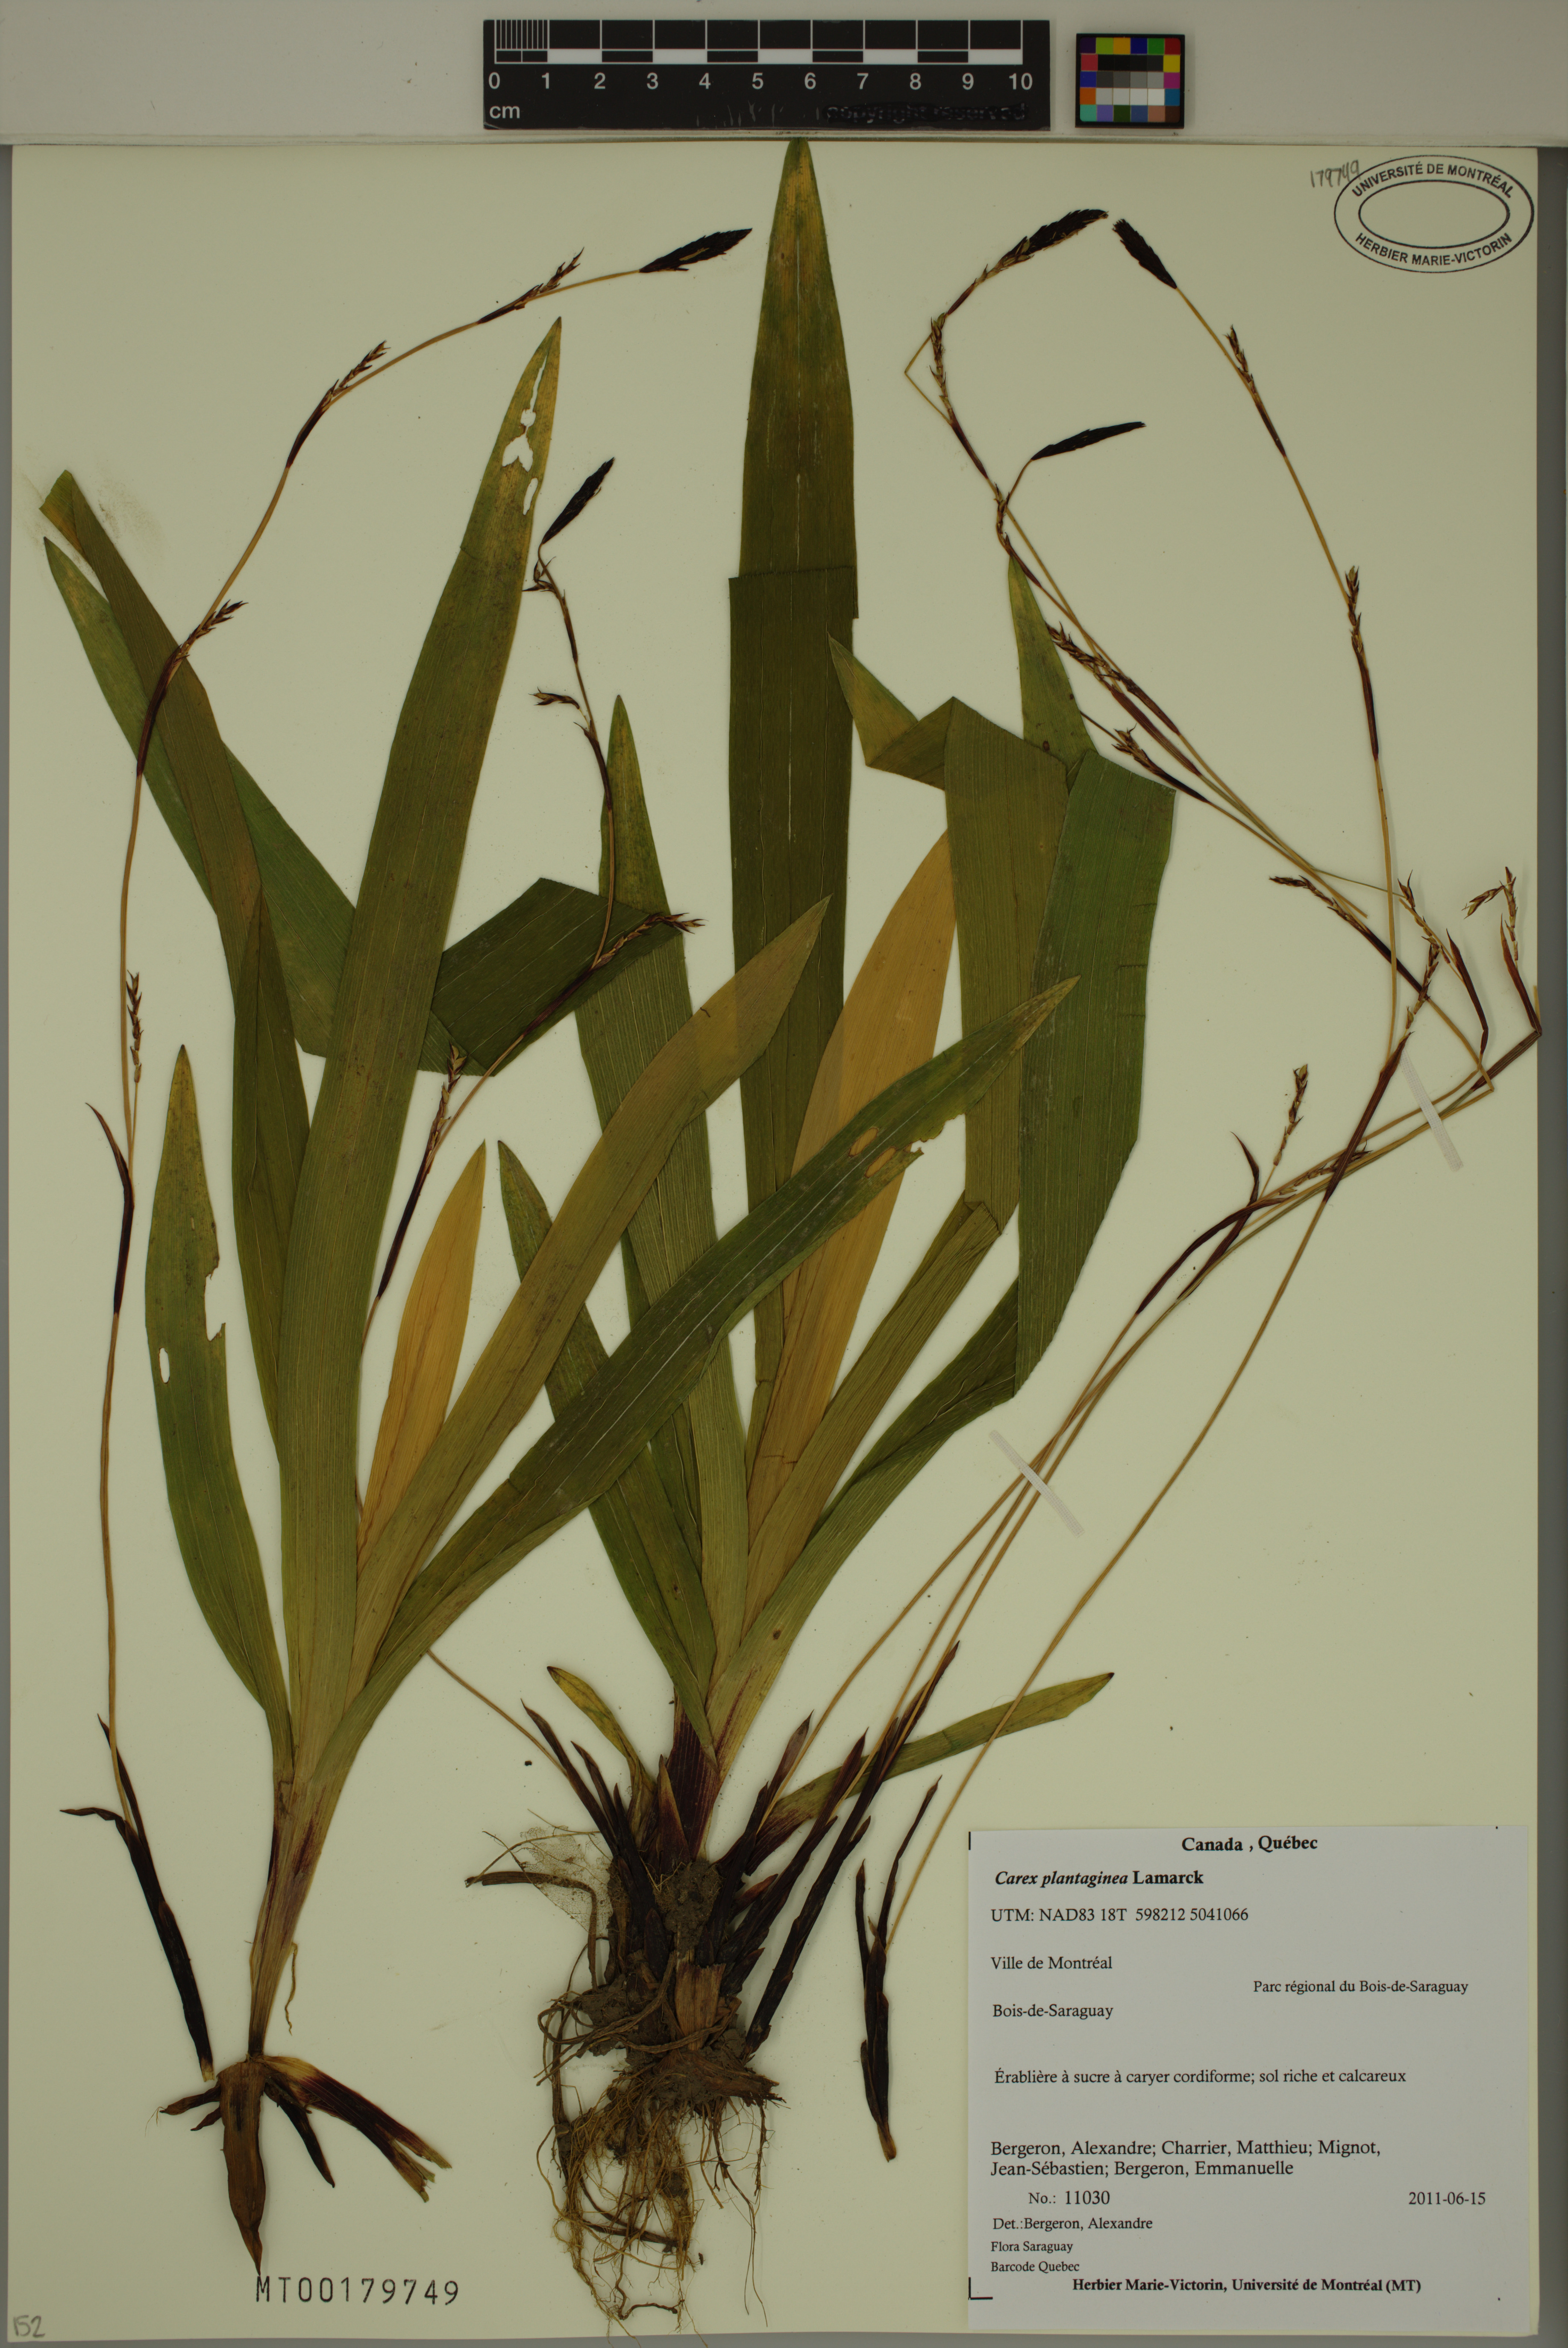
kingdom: Plantae
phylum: Tracheophyta
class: Liliopsida
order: Poales
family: Cyperaceae
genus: Carex
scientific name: Carex plantaginea
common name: Plantain-leaved sedge
